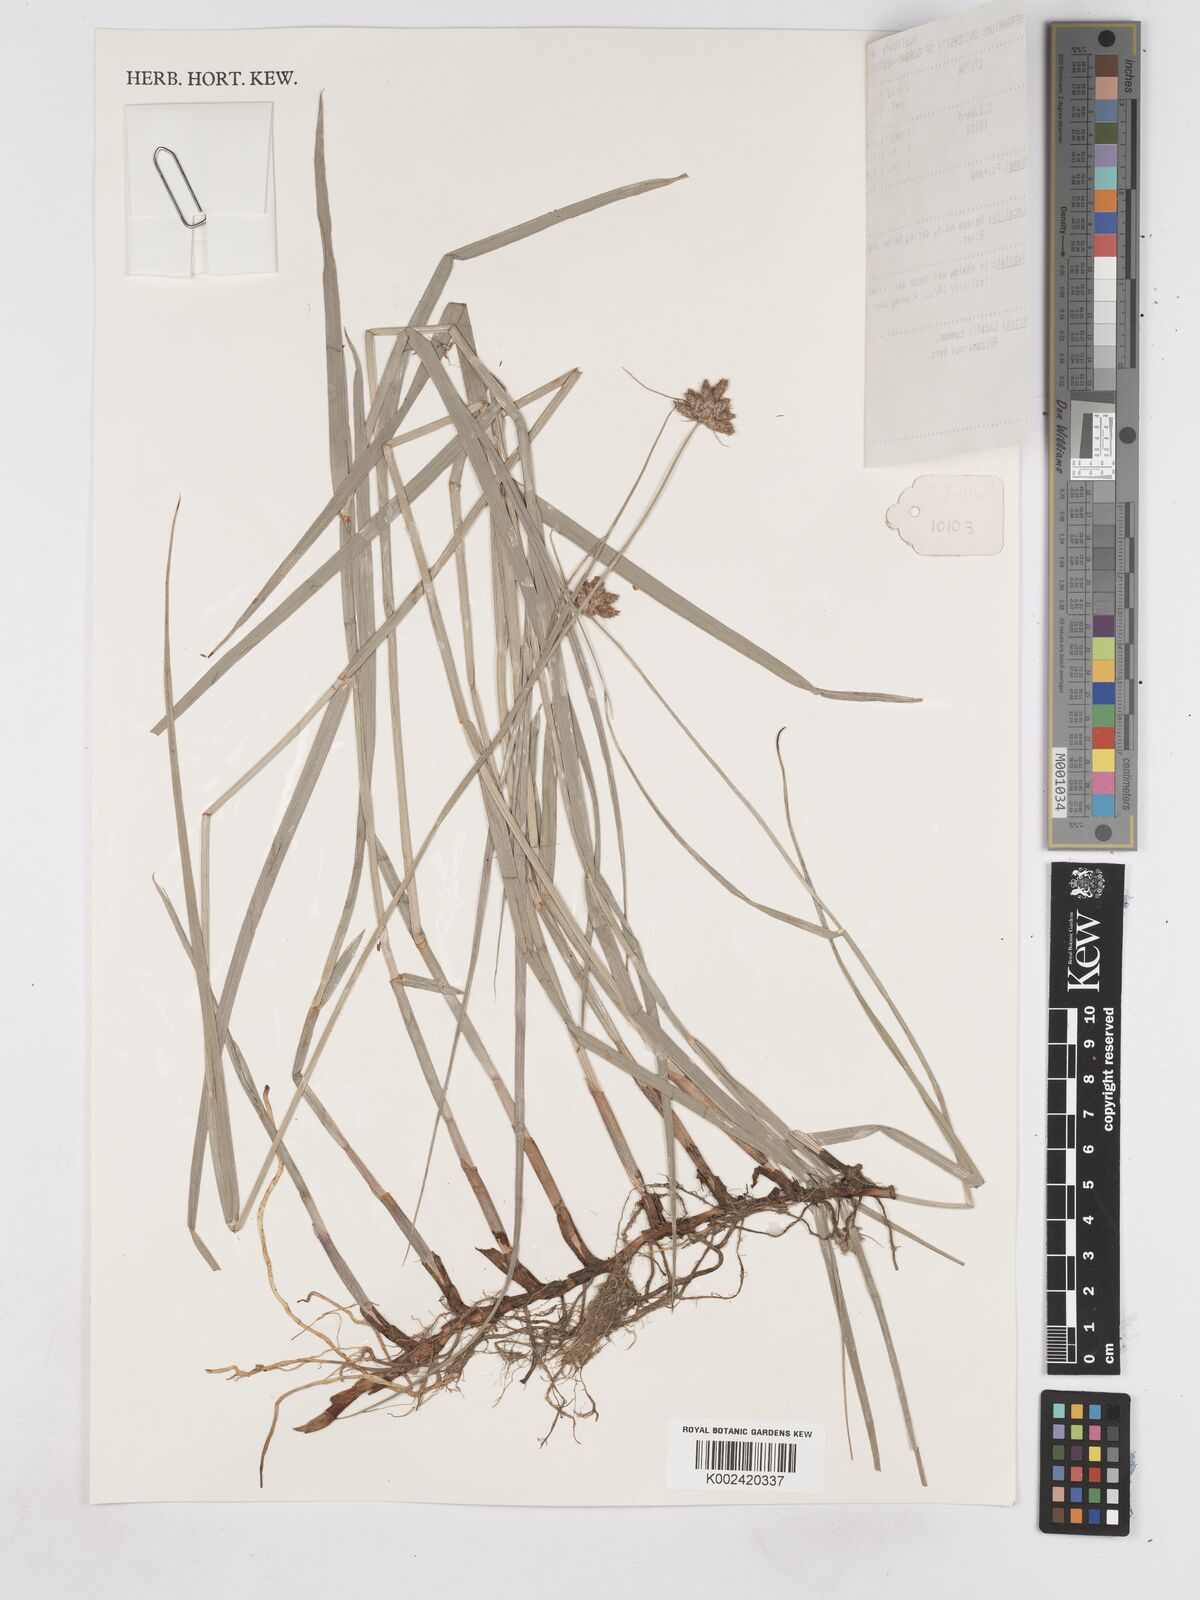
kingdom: Plantae
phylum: Tracheophyta
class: Liliopsida
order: Poales
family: Cyperaceae
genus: Fuirena
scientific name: Fuirena
